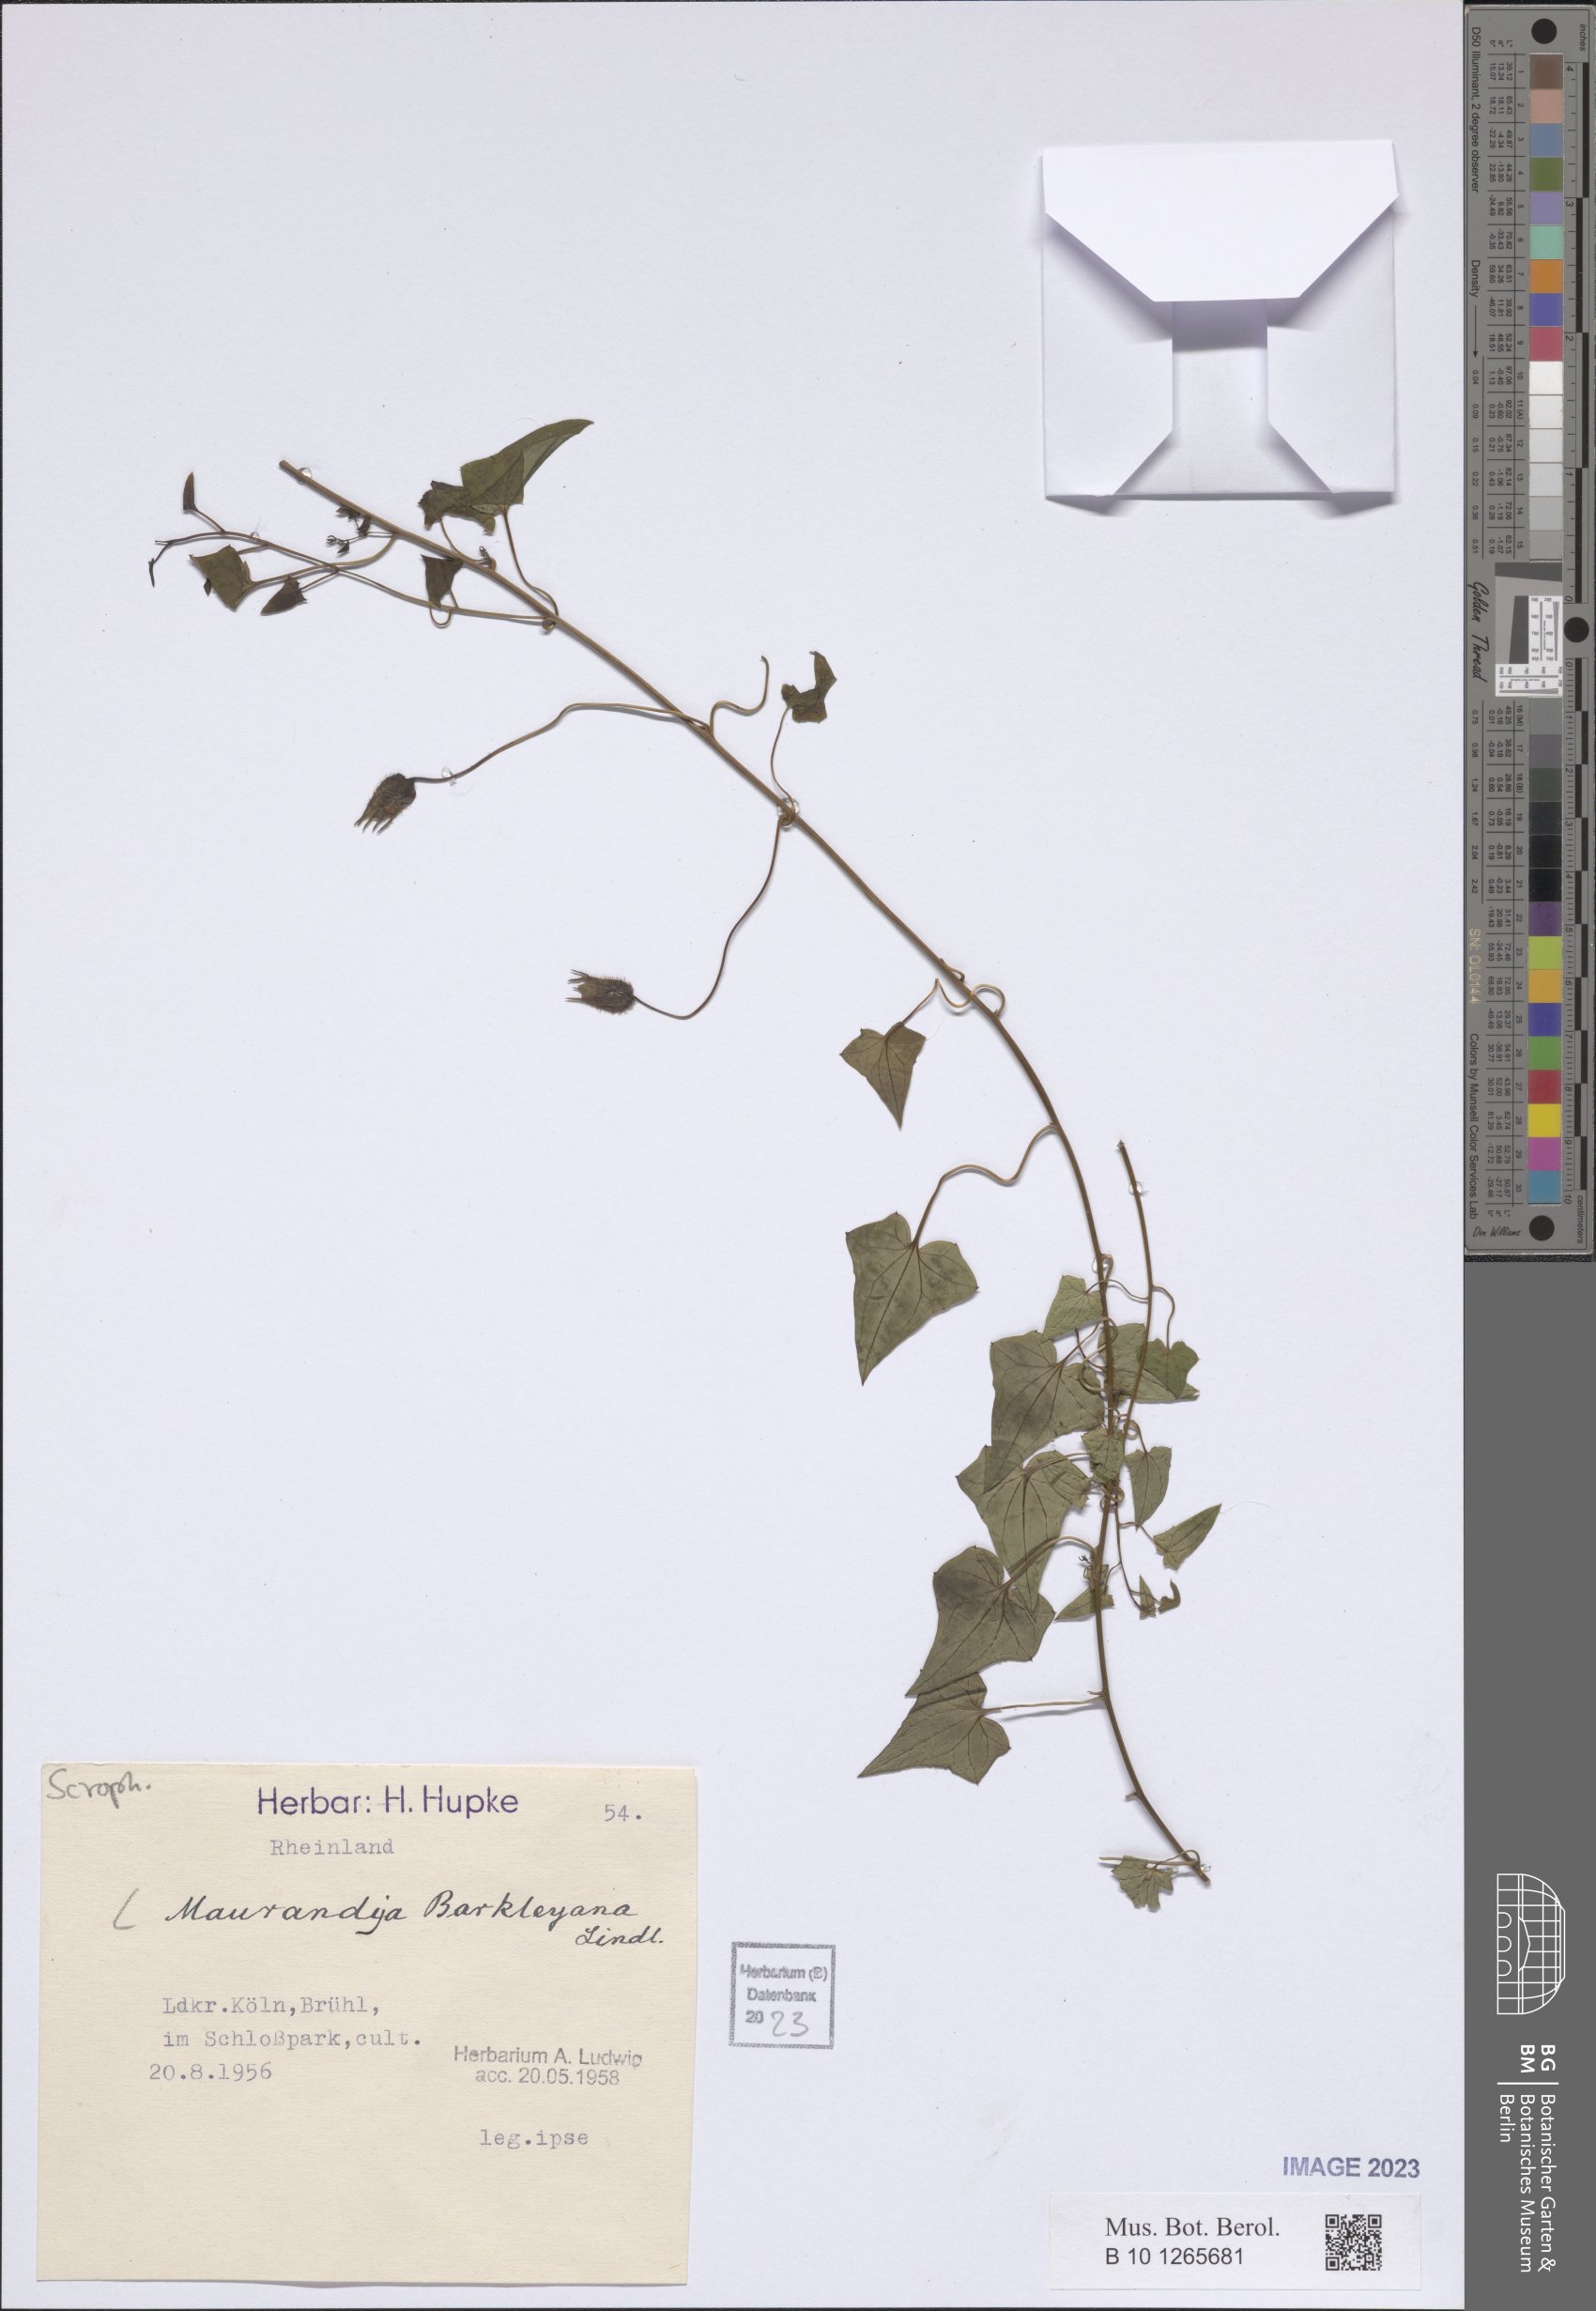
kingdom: Plantae
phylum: Tracheophyta
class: Magnoliopsida
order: Lamiales
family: Plantaginaceae
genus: Maurandya
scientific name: Maurandya barclayana
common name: Mexican viper
